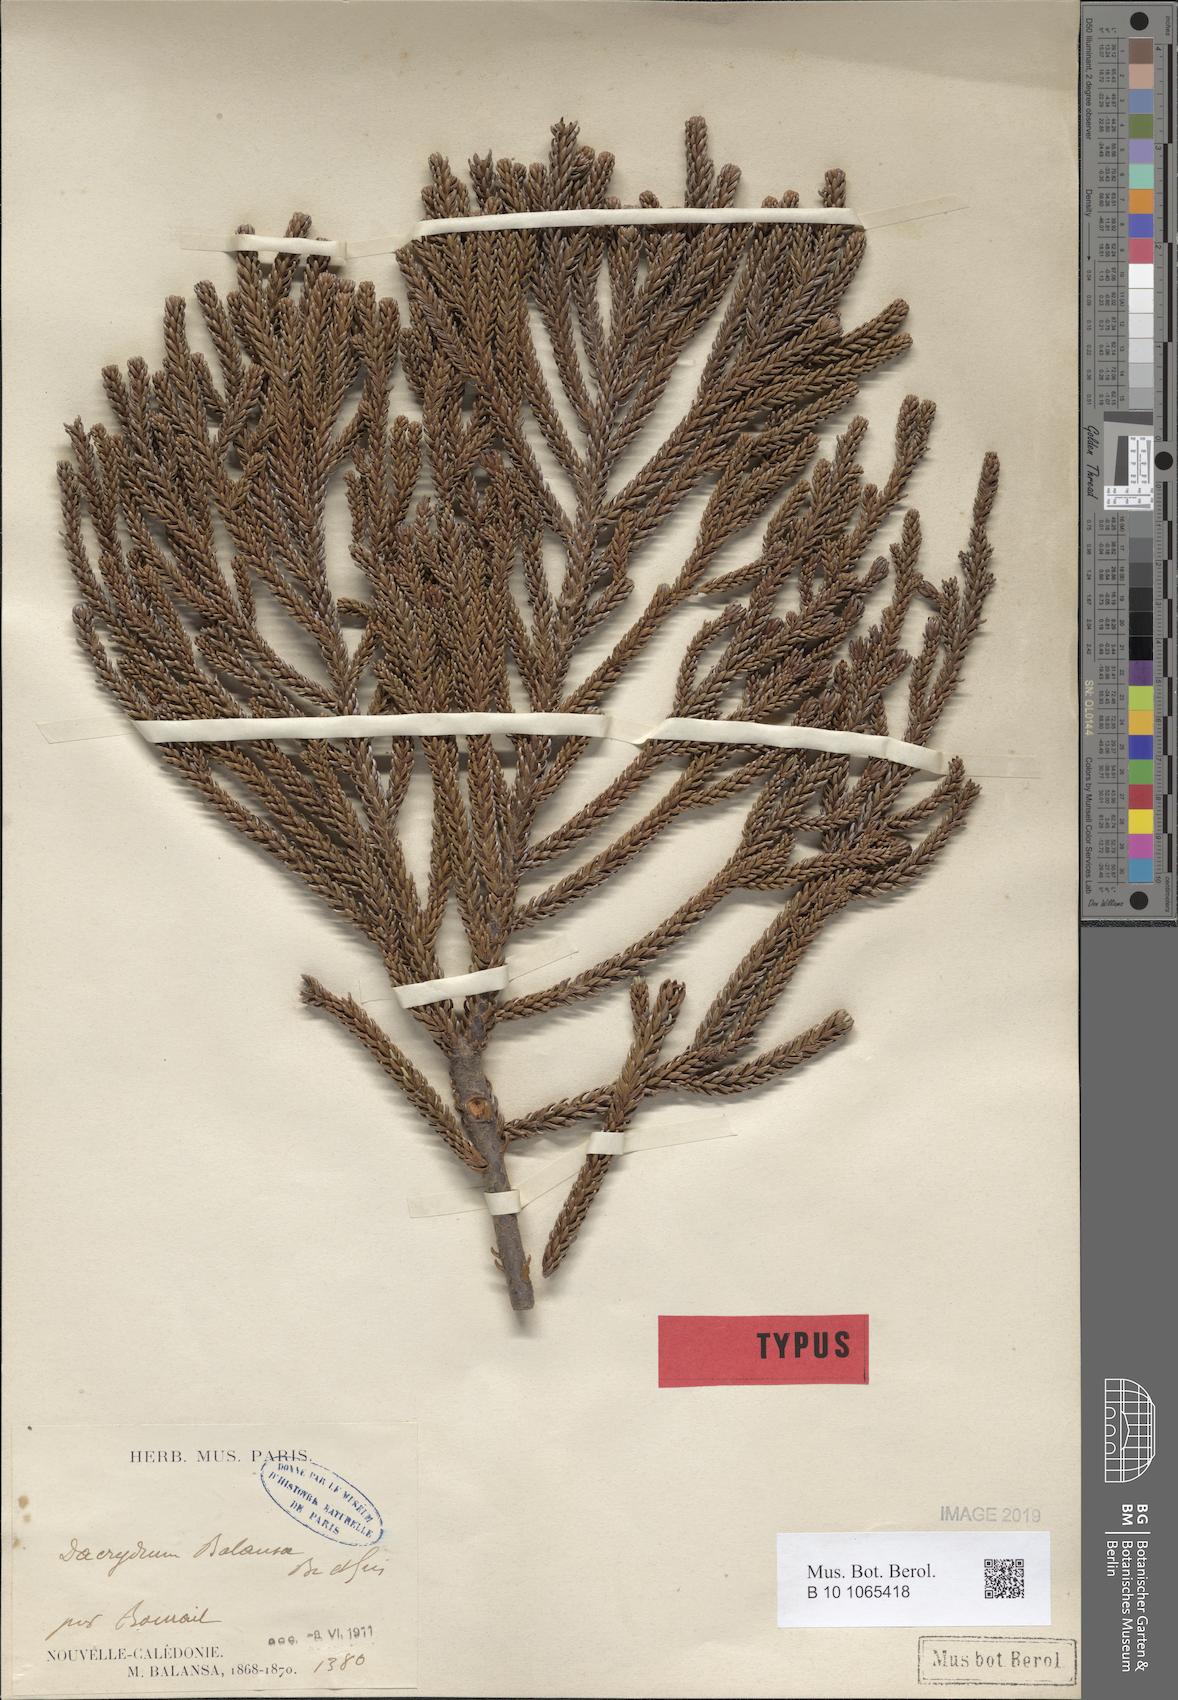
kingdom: Plantae
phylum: Tracheophyta
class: Pinopsida
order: Pinales
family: Podocarpaceae
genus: Dacrydium
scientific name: Dacrydium balansae
